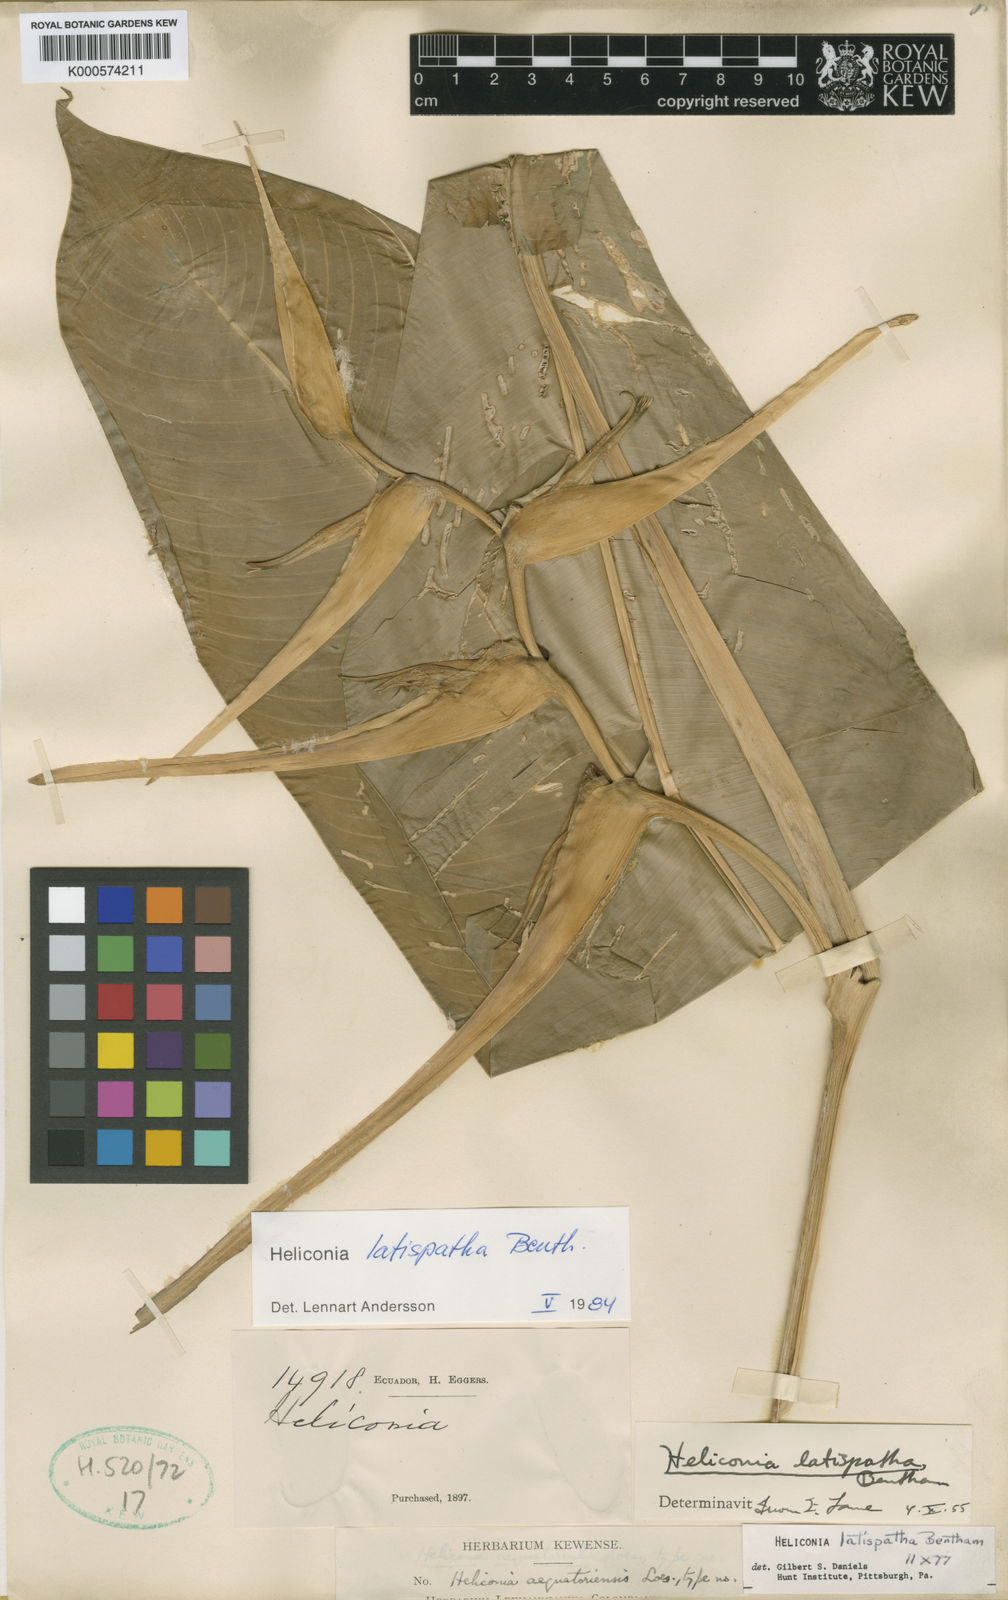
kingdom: Plantae
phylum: Tracheophyta
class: Liliopsida
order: Zingiberales
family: Heliconiaceae
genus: Heliconia
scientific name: Heliconia latispatha
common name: Expanded lobsterclaw
